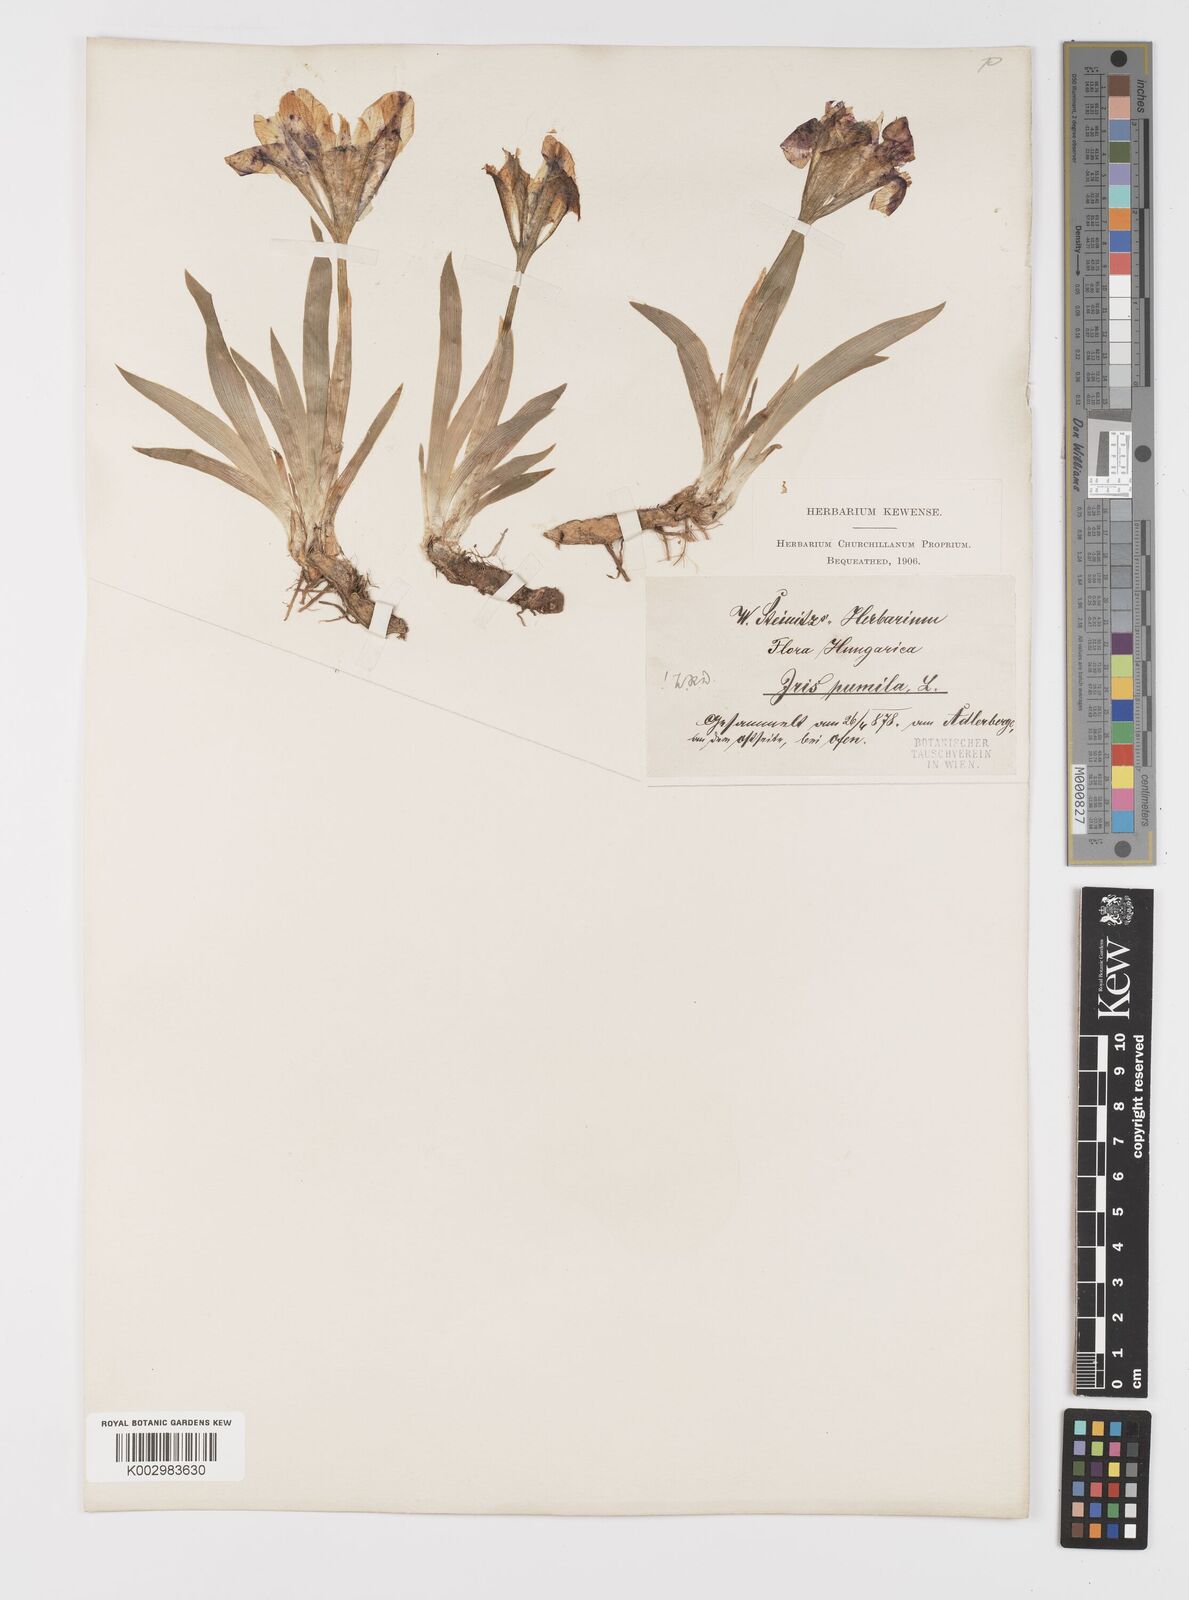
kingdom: Plantae
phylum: Tracheophyta
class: Liliopsida
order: Asparagales
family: Iridaceae
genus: Iris
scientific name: Iris pumila
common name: Dwarf iris
